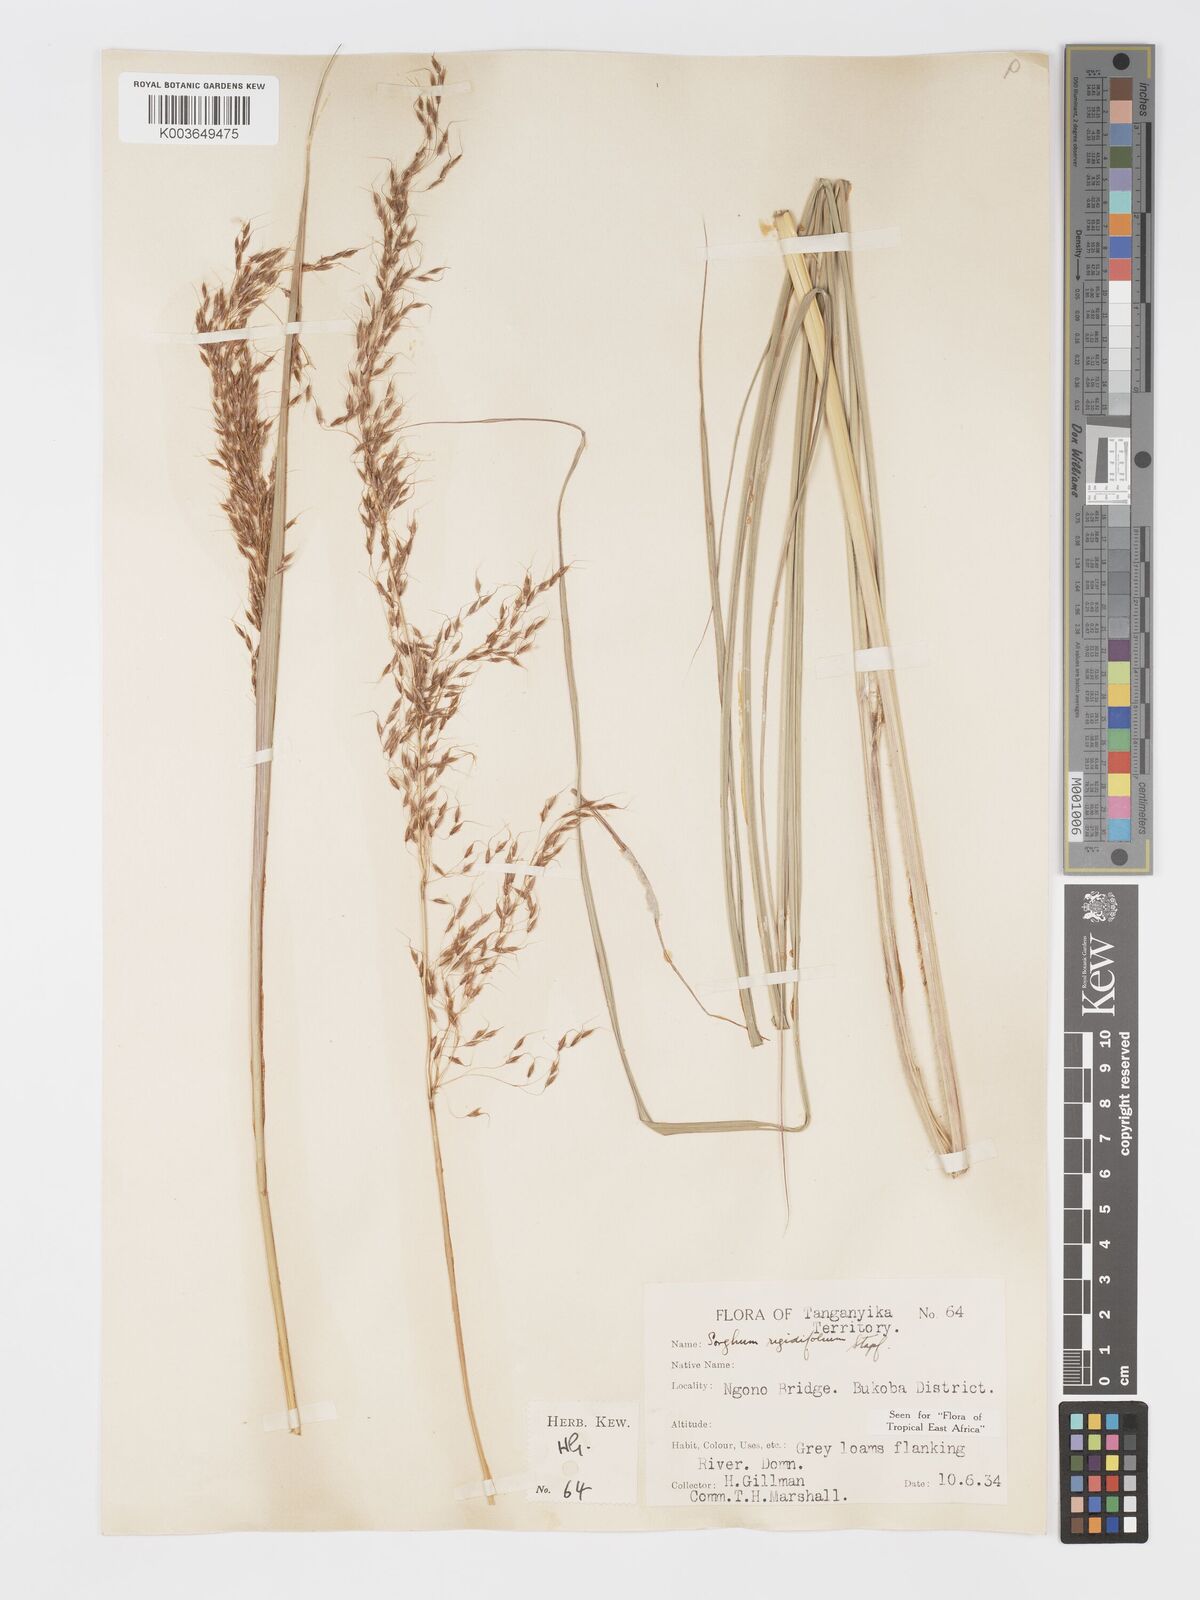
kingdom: Plantae
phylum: Tracheophyta
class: Liliopsida
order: Poales
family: Poaceae
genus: Sorghastrum
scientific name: Sorghastrum stipoides
